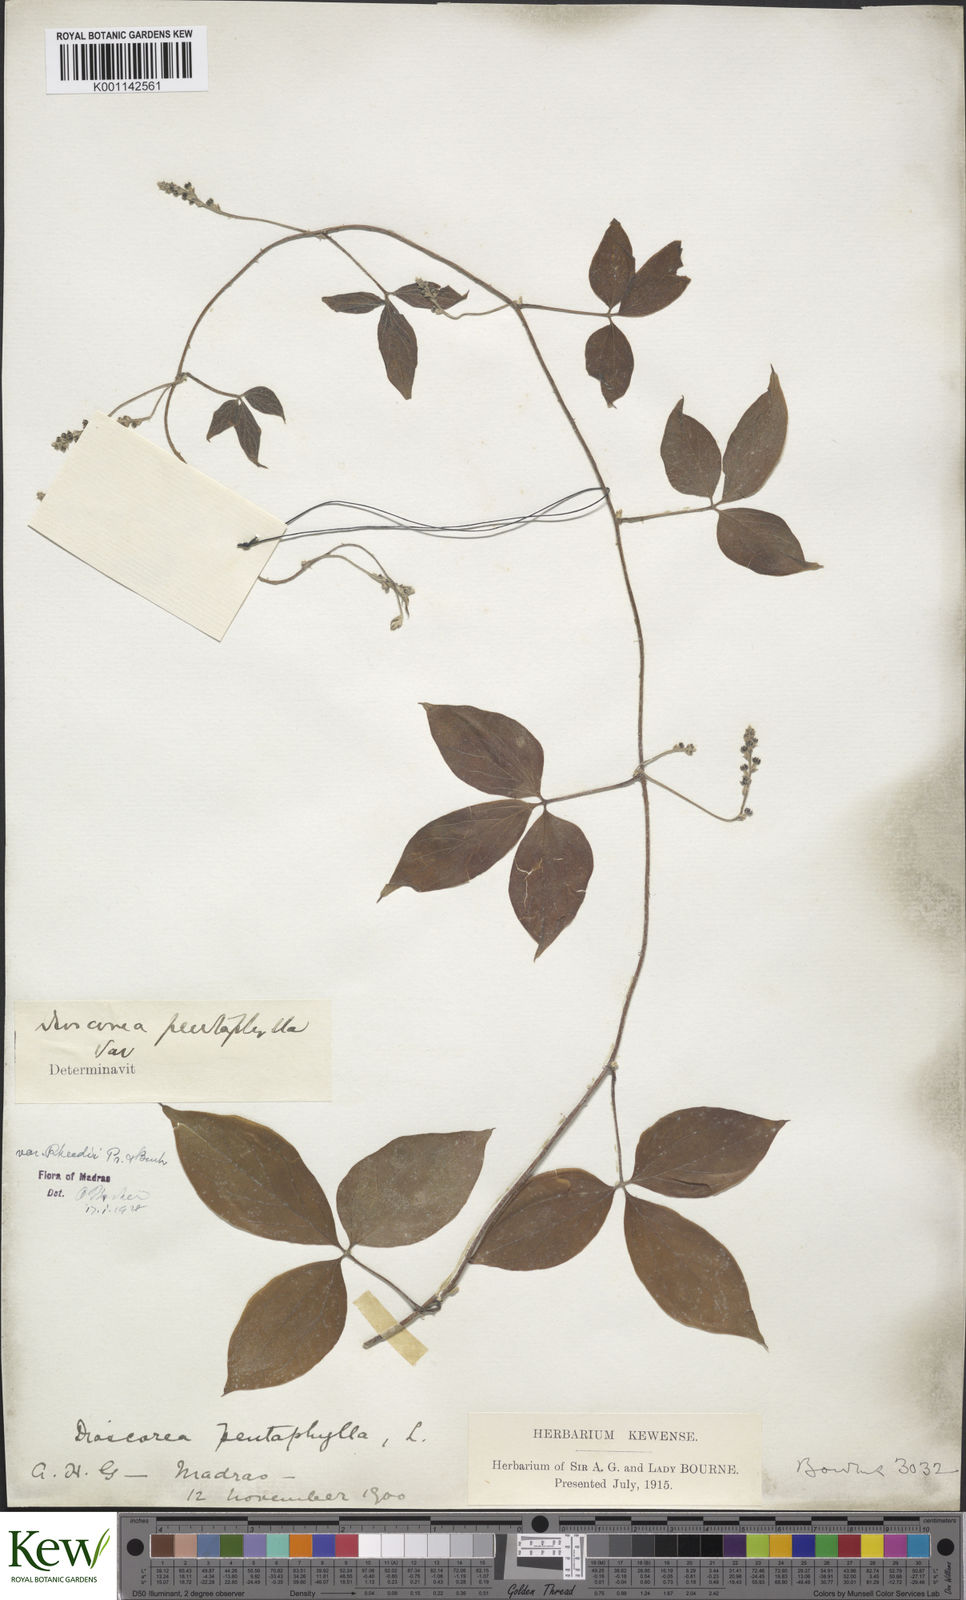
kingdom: Plantae
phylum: Tracheophyta
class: Liliopsida
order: Dioscoreales
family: Dioscoreaceae
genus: Dioscorea
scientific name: Dioscorea pentaphylla
